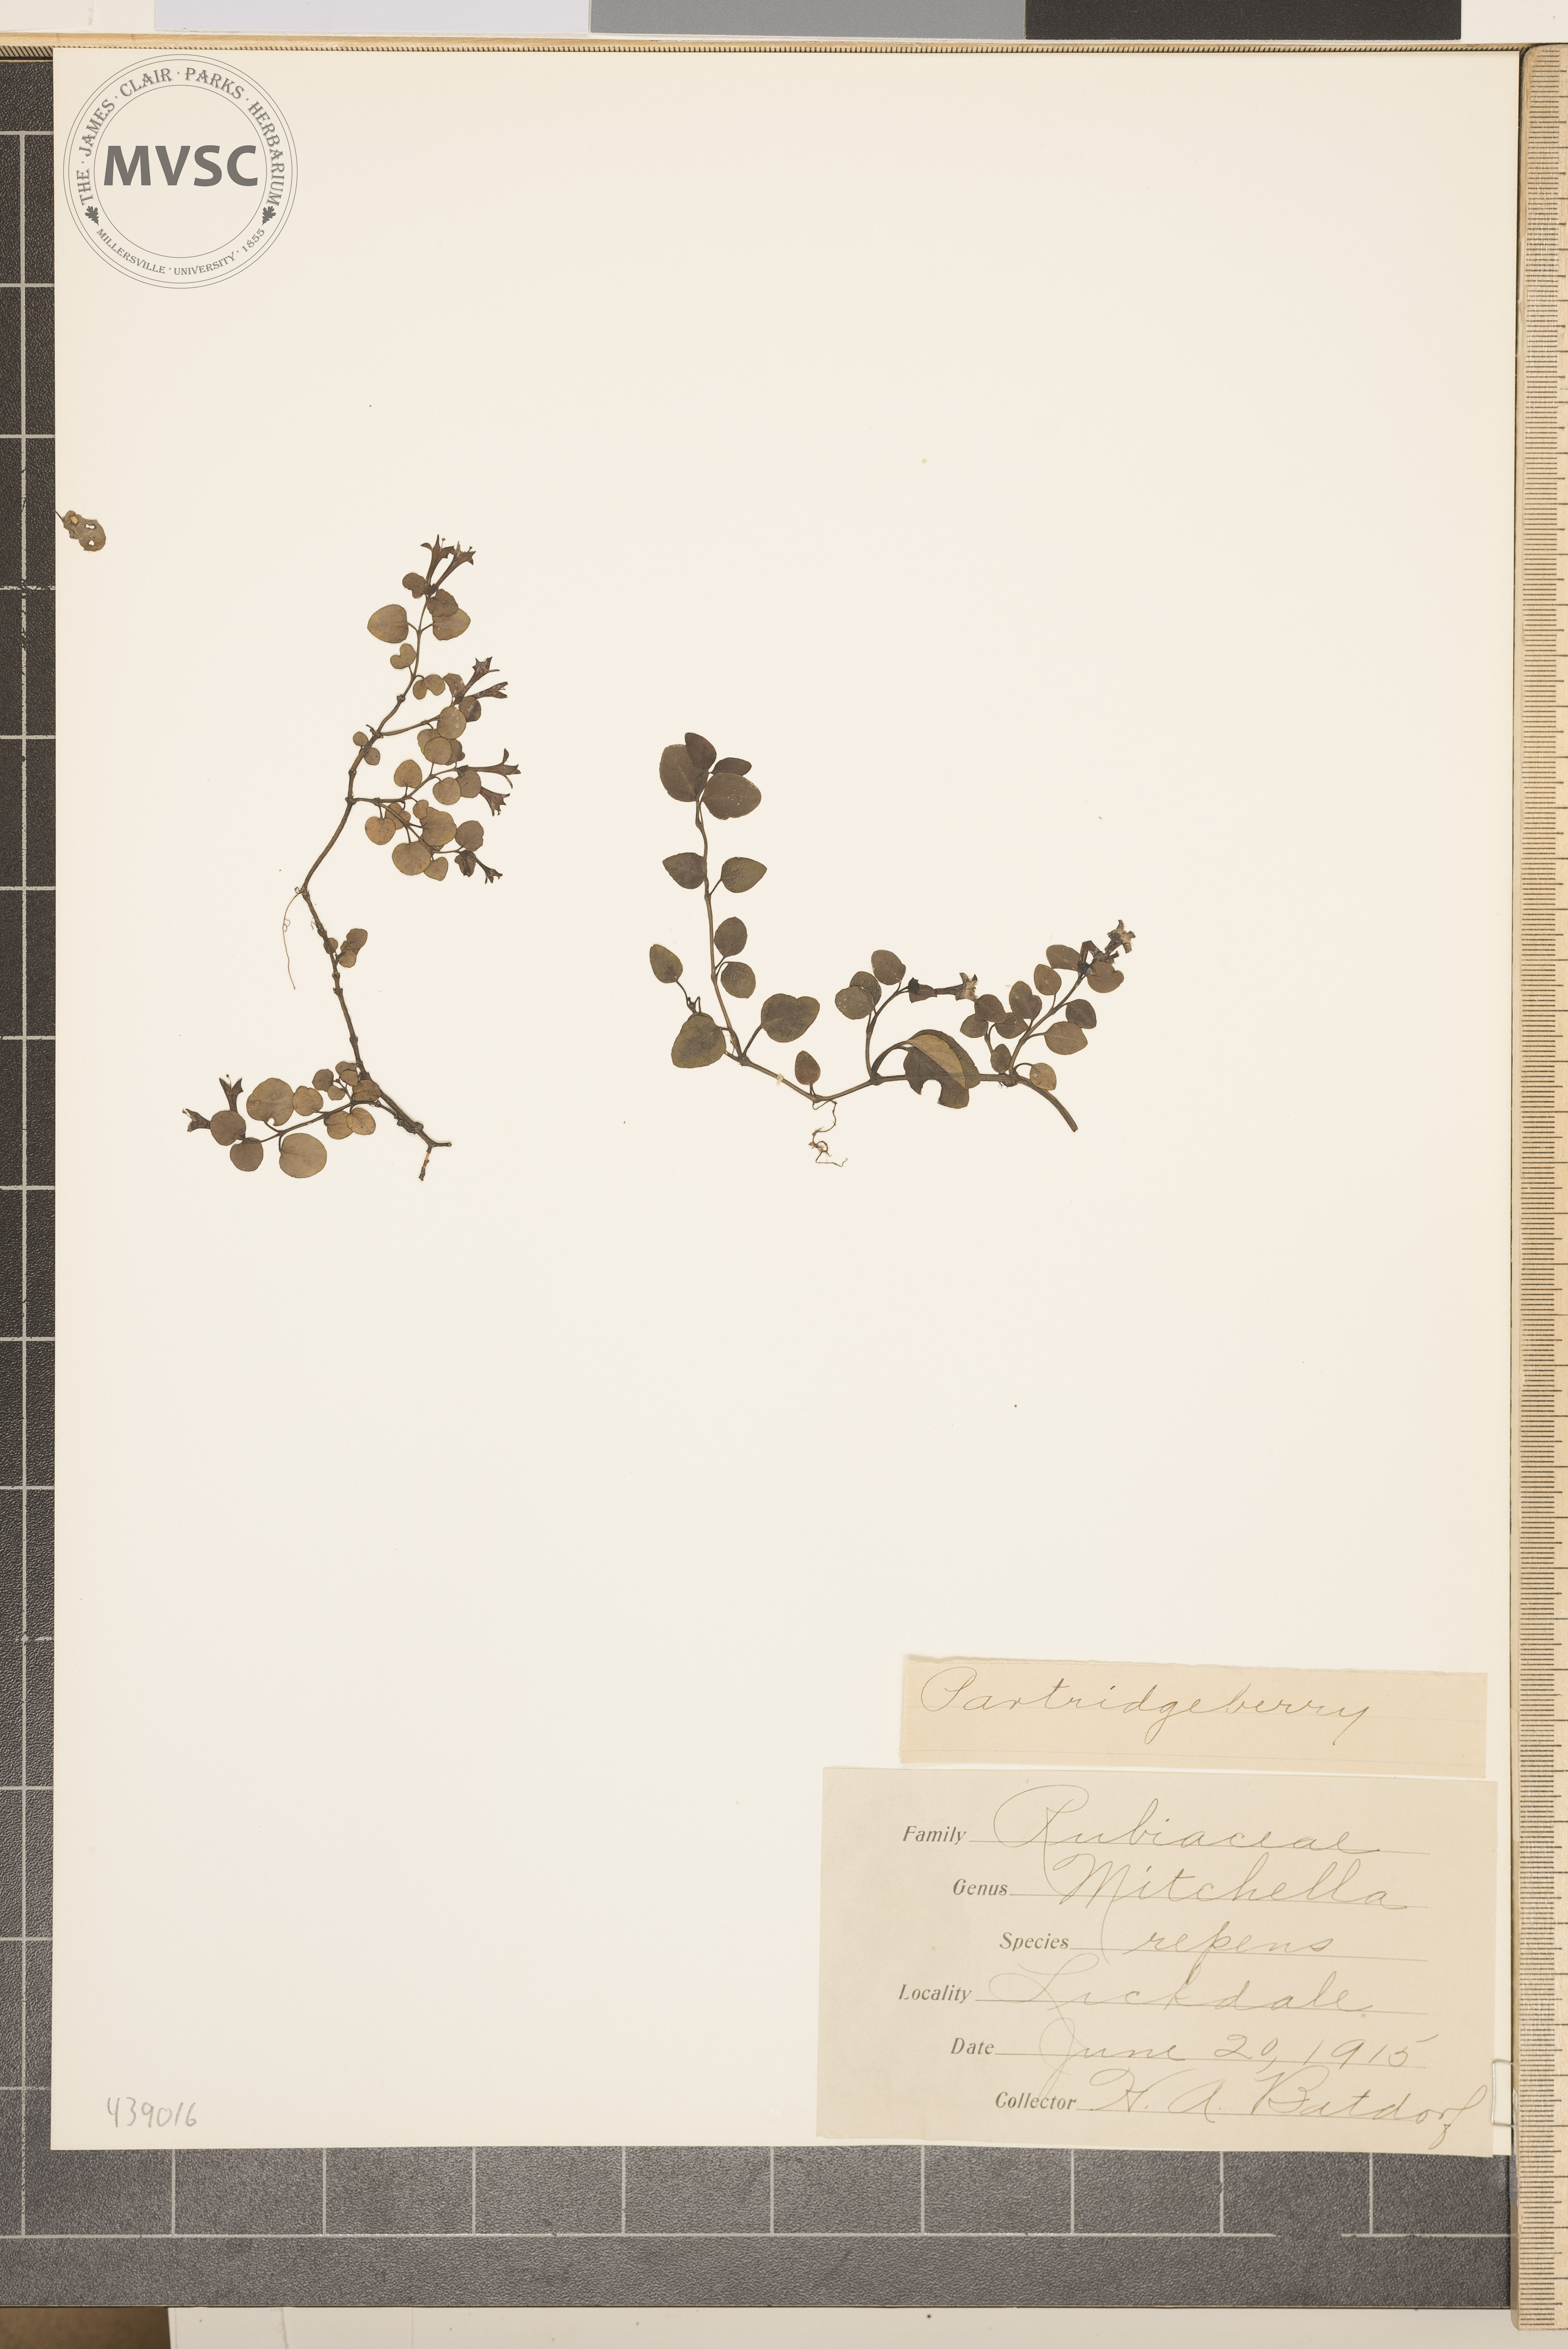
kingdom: Plantae
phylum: Tracheophyta
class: Magnoliopsida
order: Gentianales
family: Rubiaceae
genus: Mitchella
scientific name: Mitchella repens
